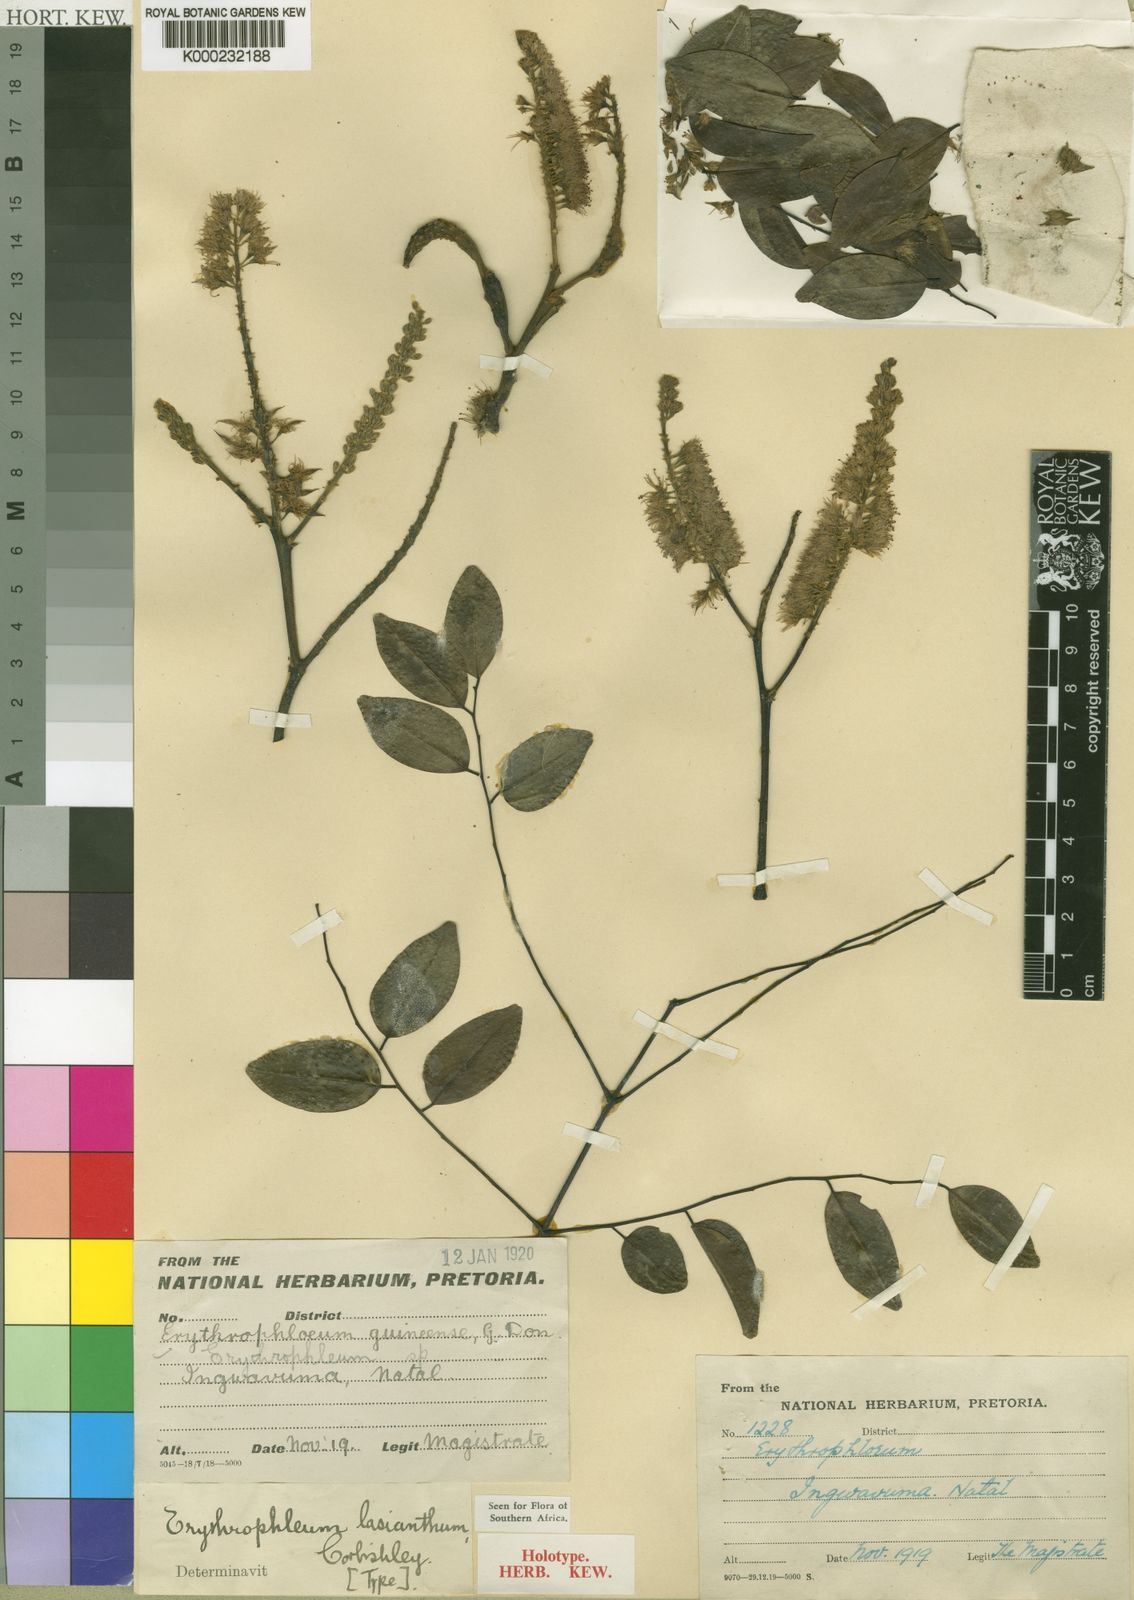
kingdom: Plantae
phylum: Tracheophyta
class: Magnoliopsida
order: Fabales
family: Fabaceae
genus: Erythrophleum
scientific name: Erythrophleum lasianthum
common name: Maputaland ordeal tree
